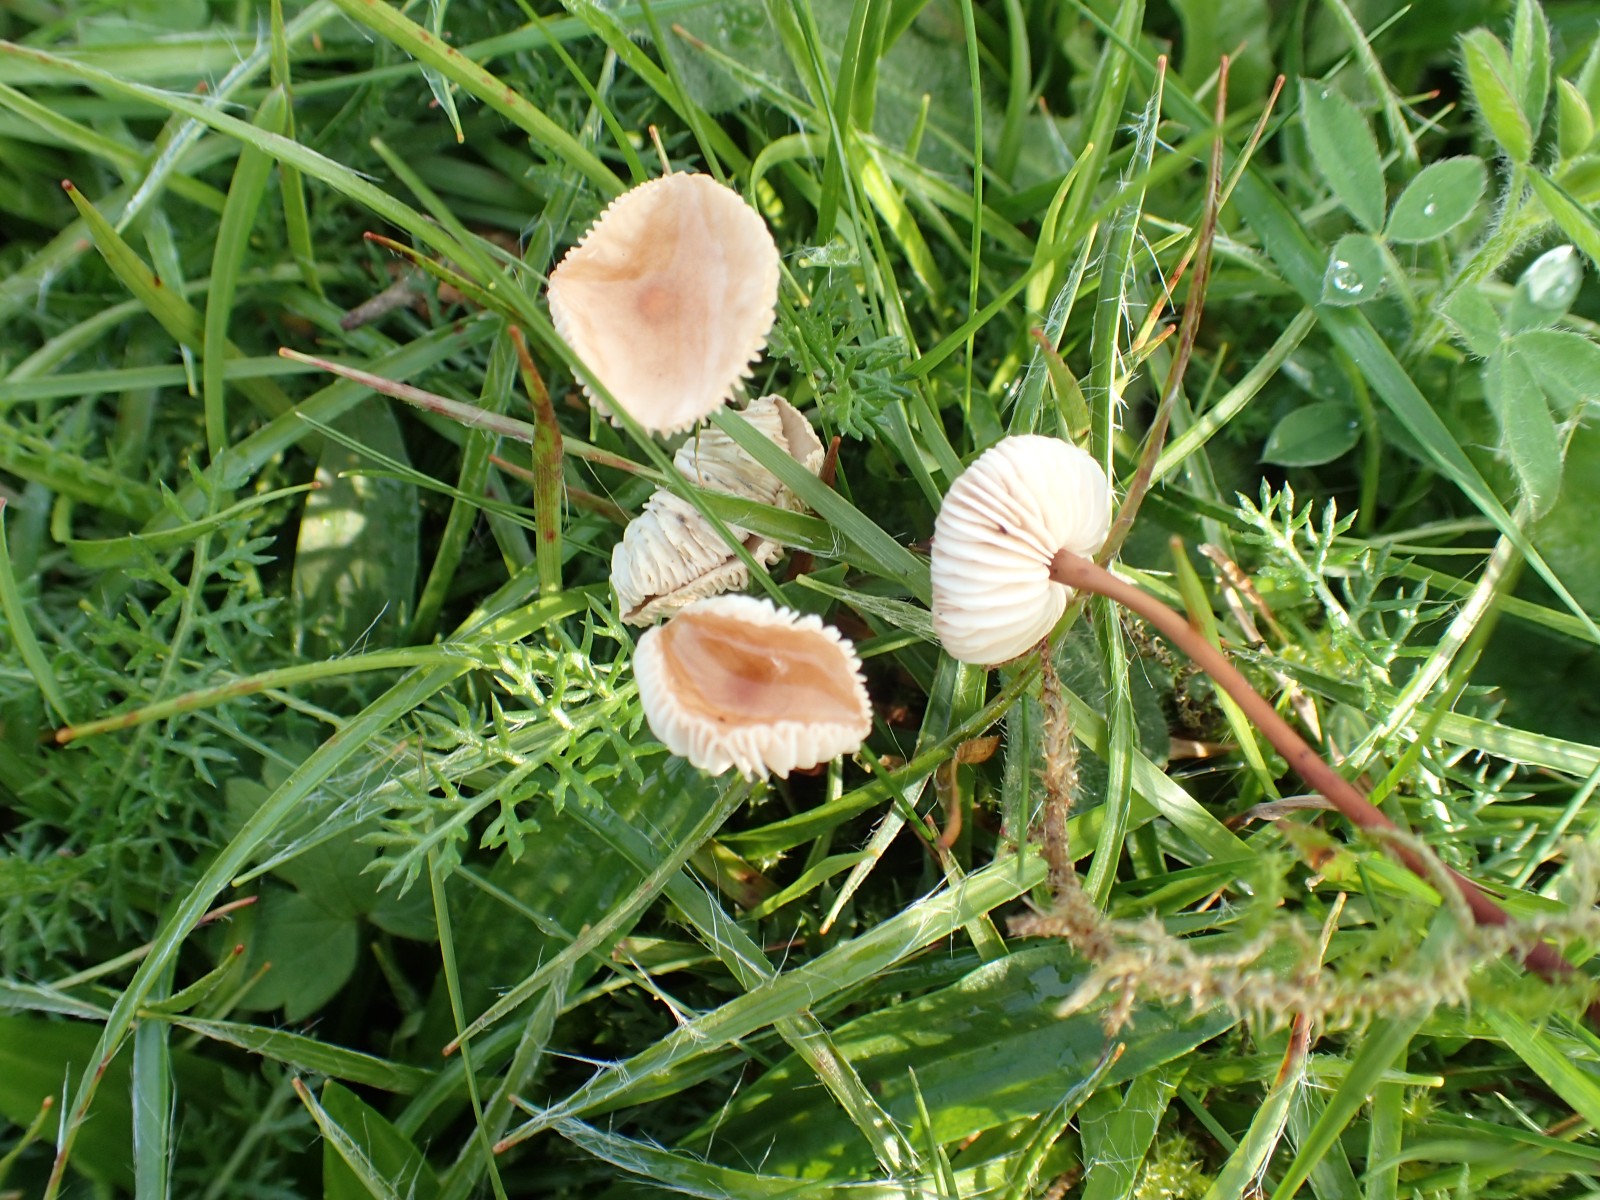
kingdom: Fungi
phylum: Basidiomycota
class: Agaricomycetes
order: Agaricales
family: Omphalotaceae
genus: Mycetinis
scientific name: Mycetinis scorodonius
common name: lille løghat
